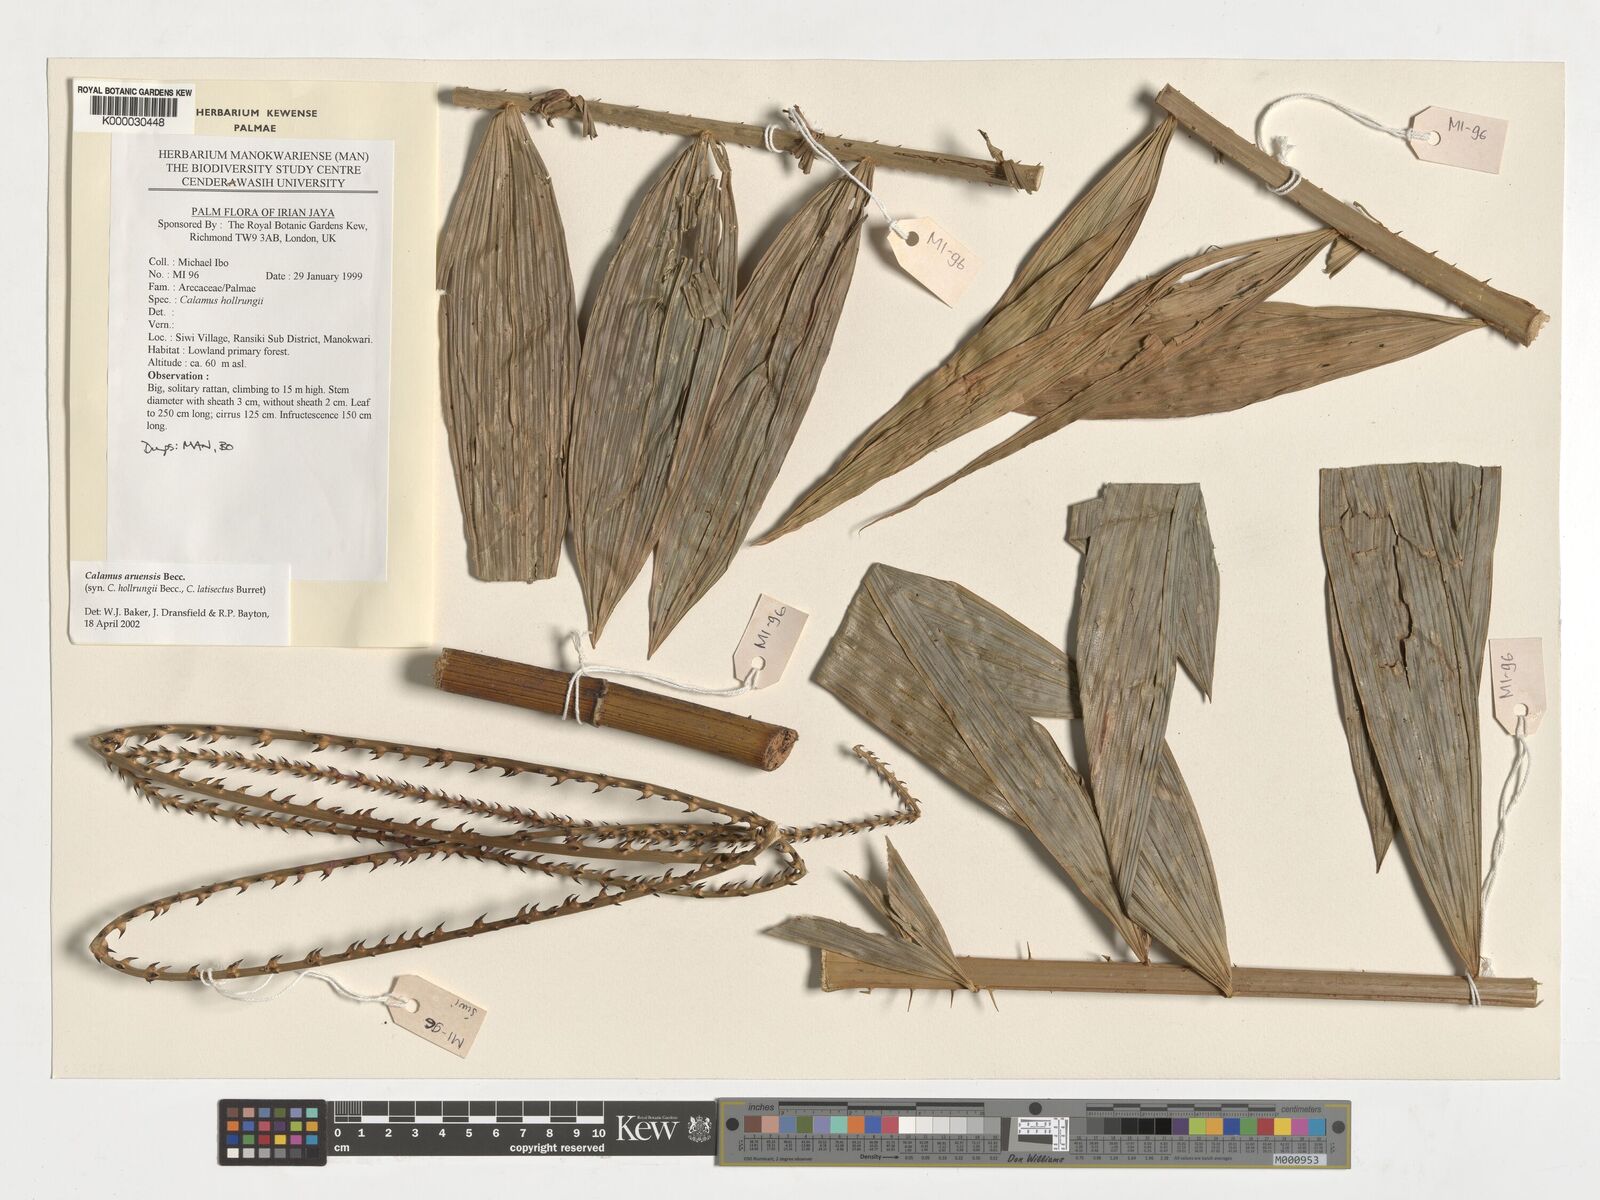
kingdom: Plantae
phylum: Tracheophyta
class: Liliopsida
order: Arecales
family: Arecaceae
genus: Calamus
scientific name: Calamus aruensis
